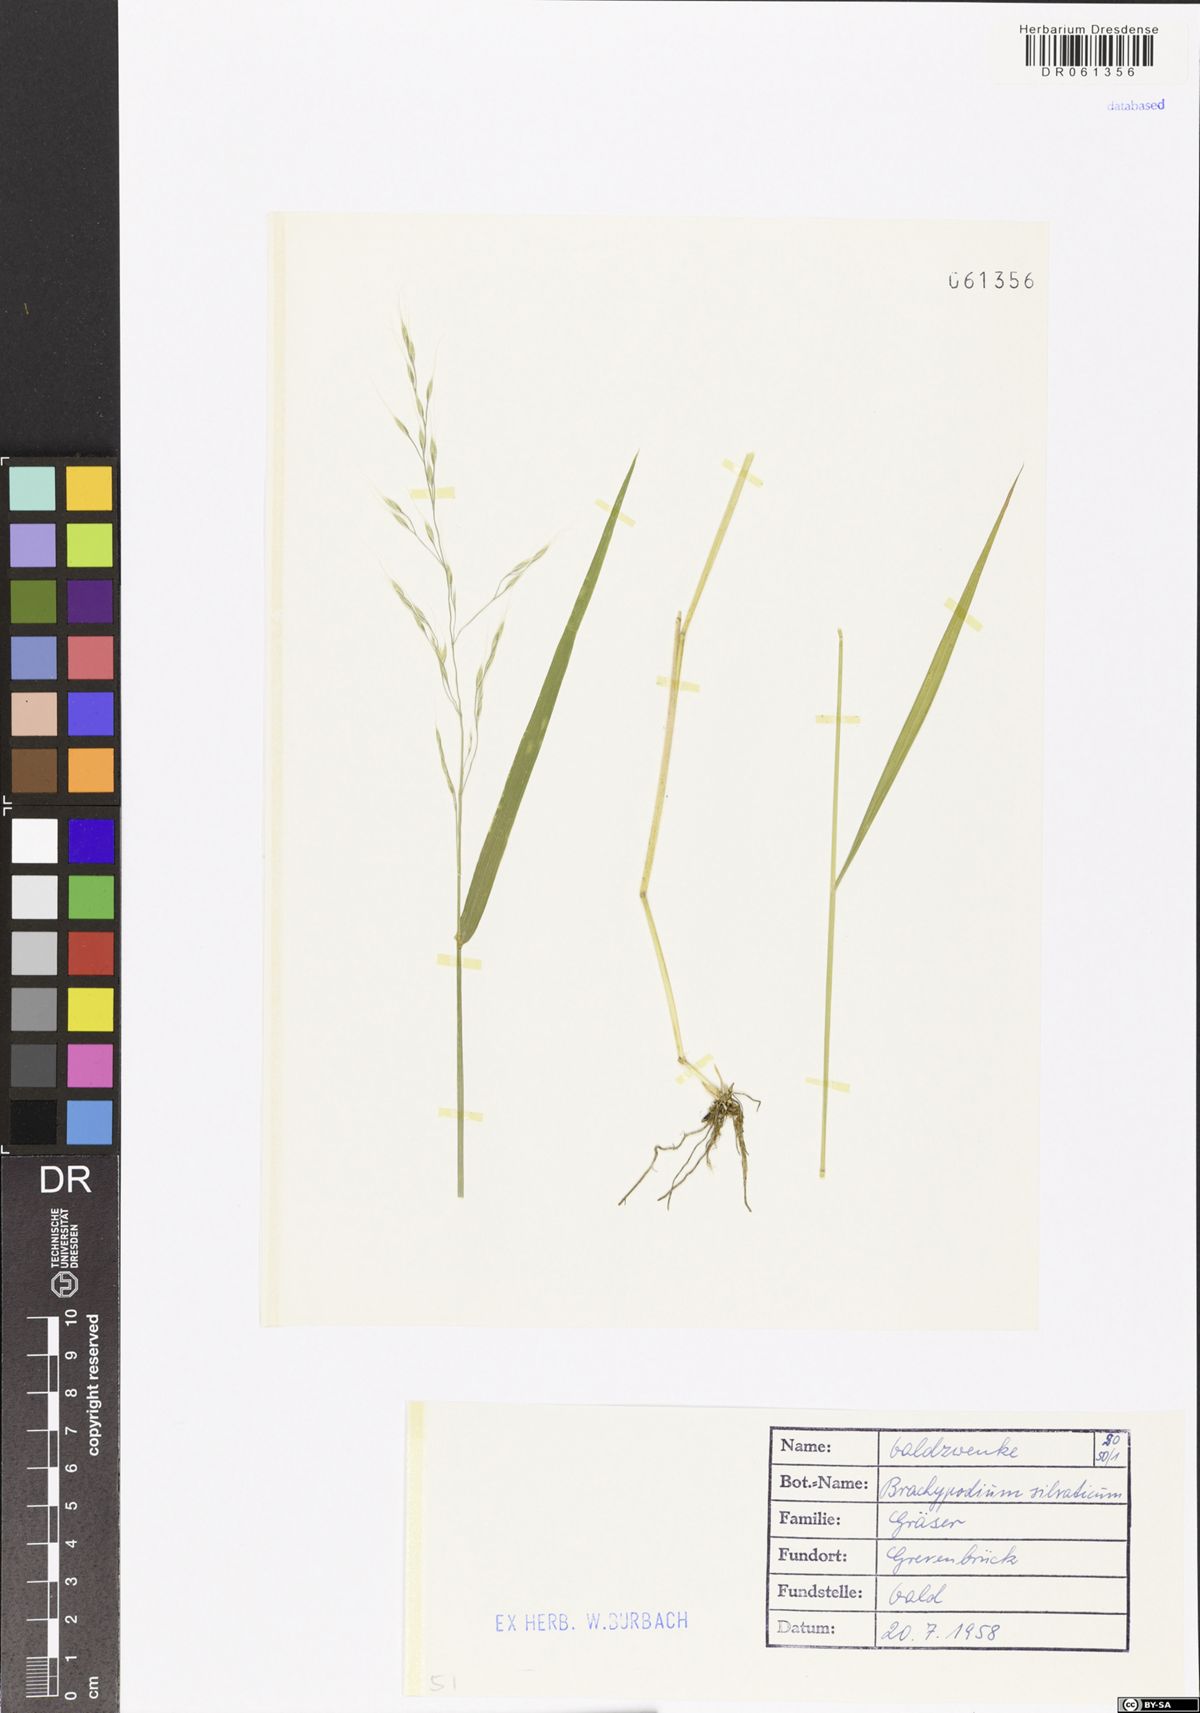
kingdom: Plantae
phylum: Tracheophyta
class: Liliopsida
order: Poales
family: Poaceae
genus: Brachypodium
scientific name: Brachypodium sylvaticum
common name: False-brome
